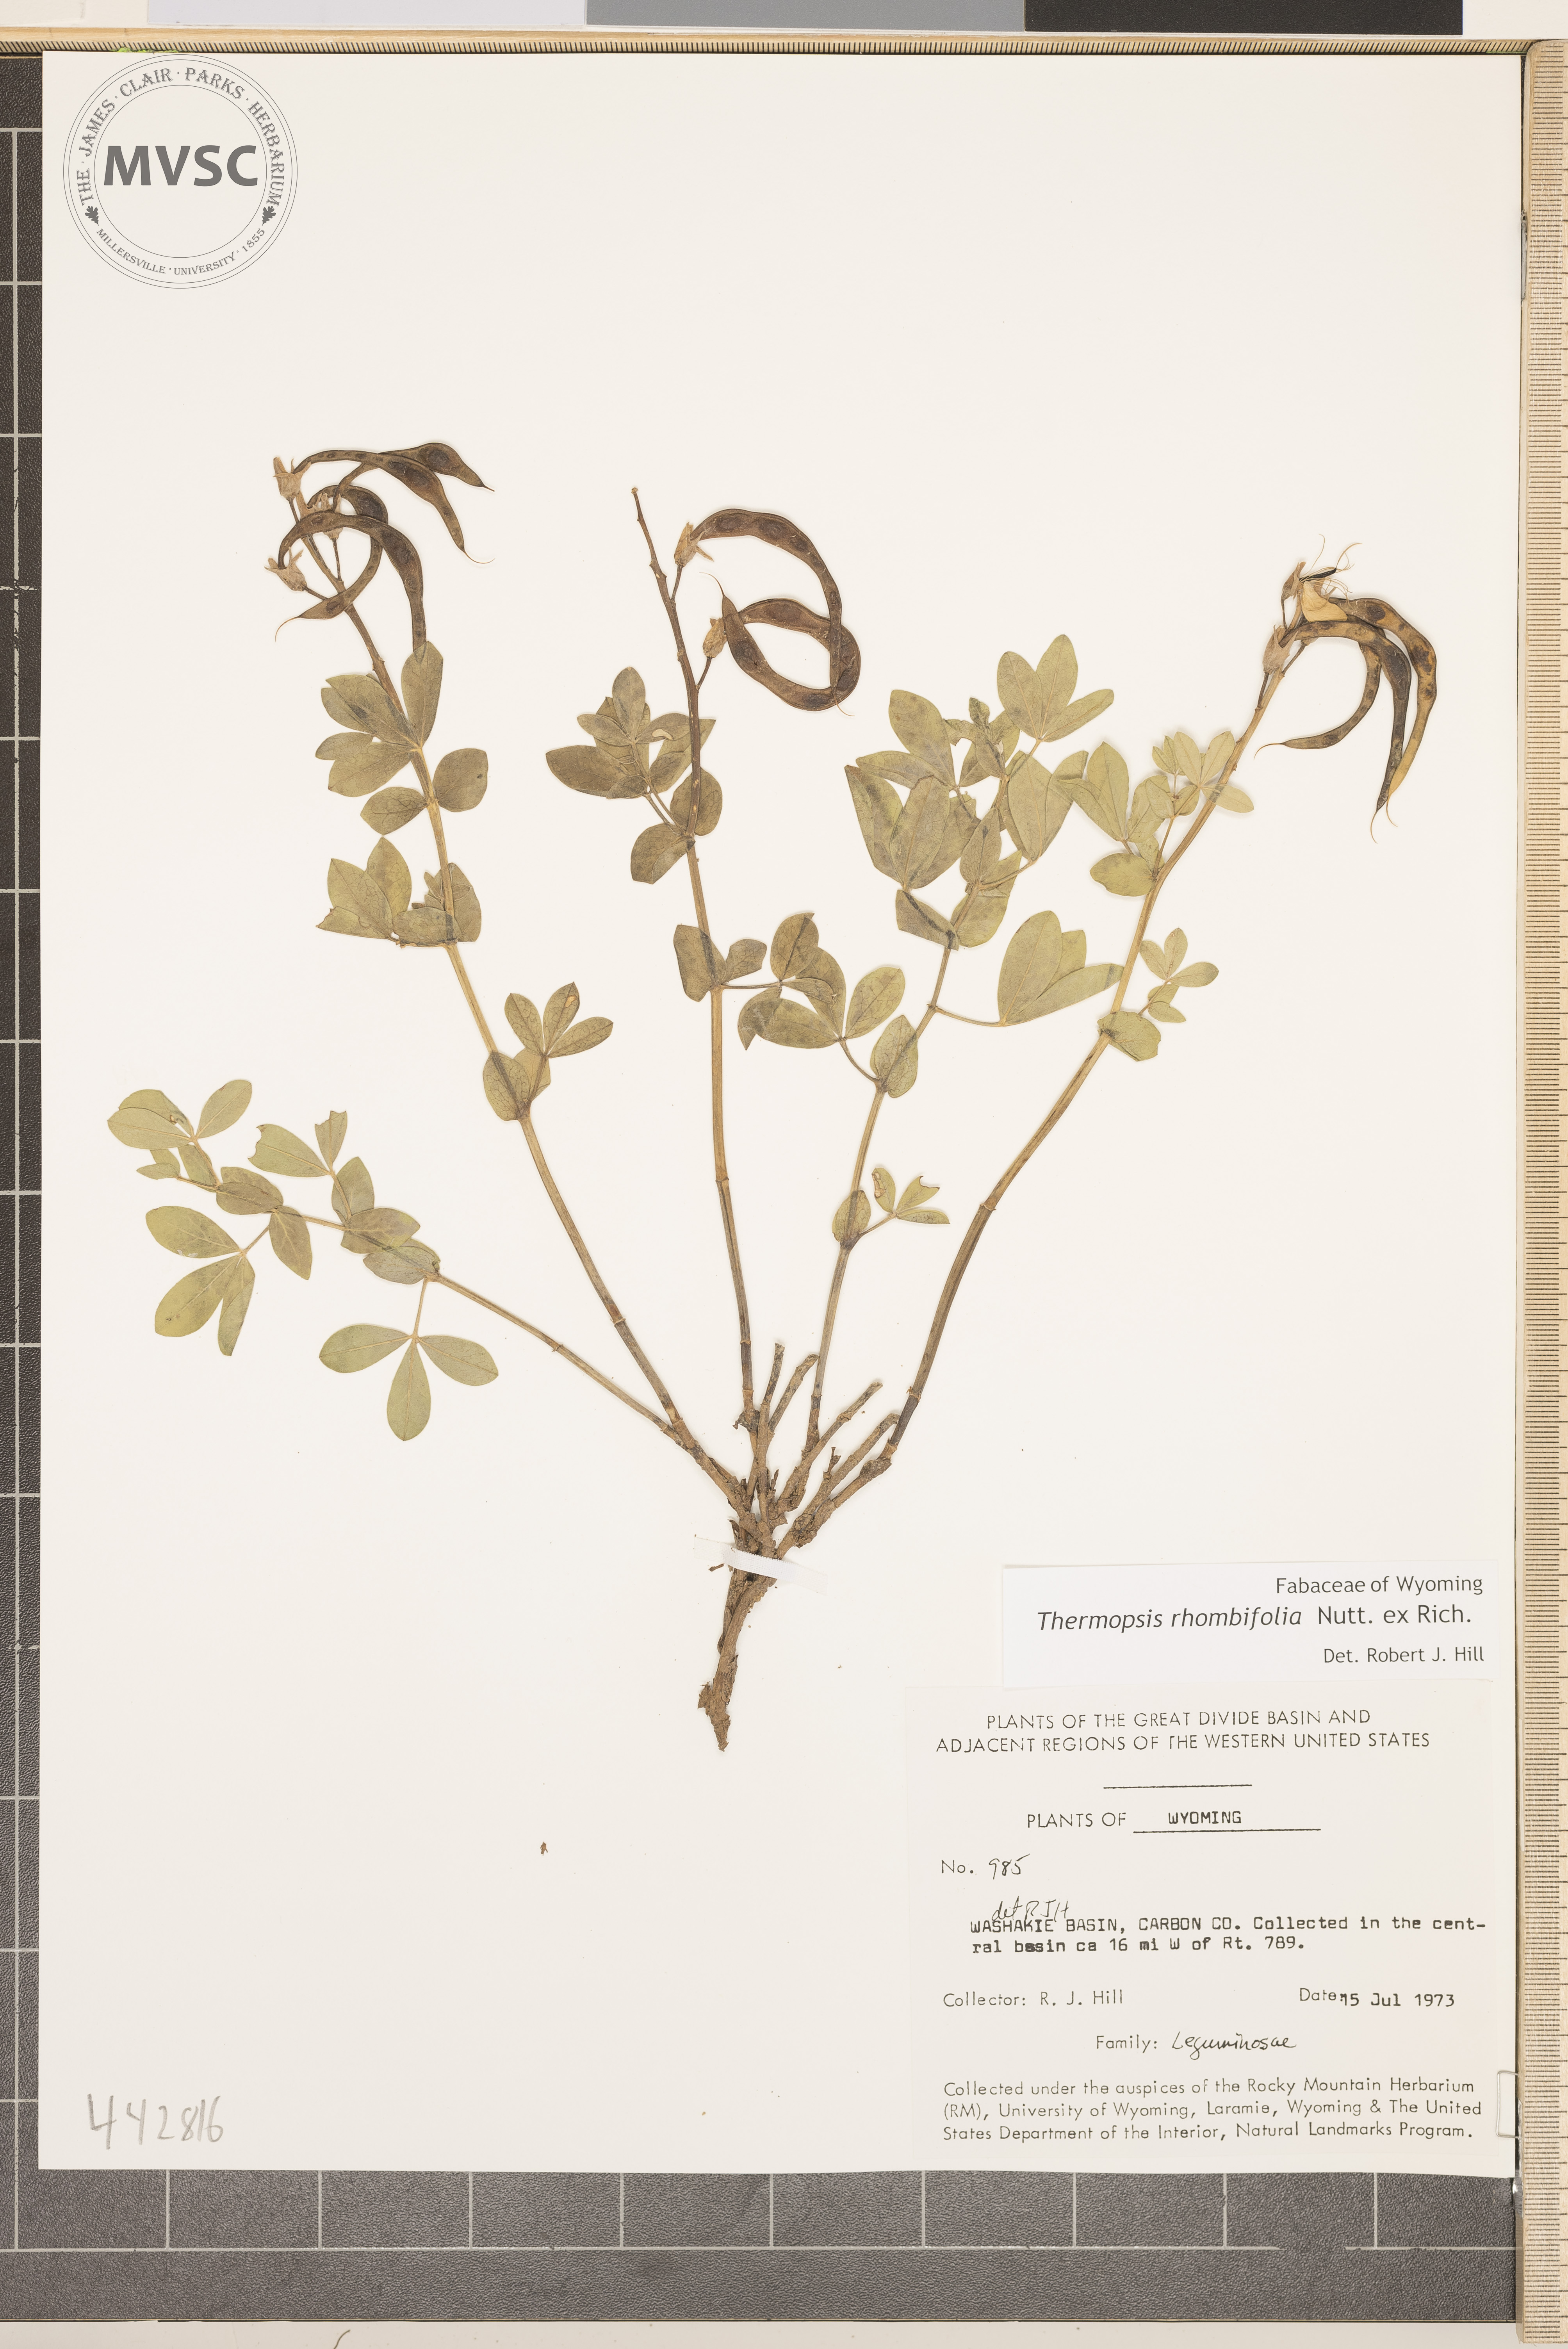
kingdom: Plantae
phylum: Tracheophyta
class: Magnoliopsida
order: Fabales
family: Fabaceae
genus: Thermopsis
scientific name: Thermopsis rhombifolia
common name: Circle-pod-pea
